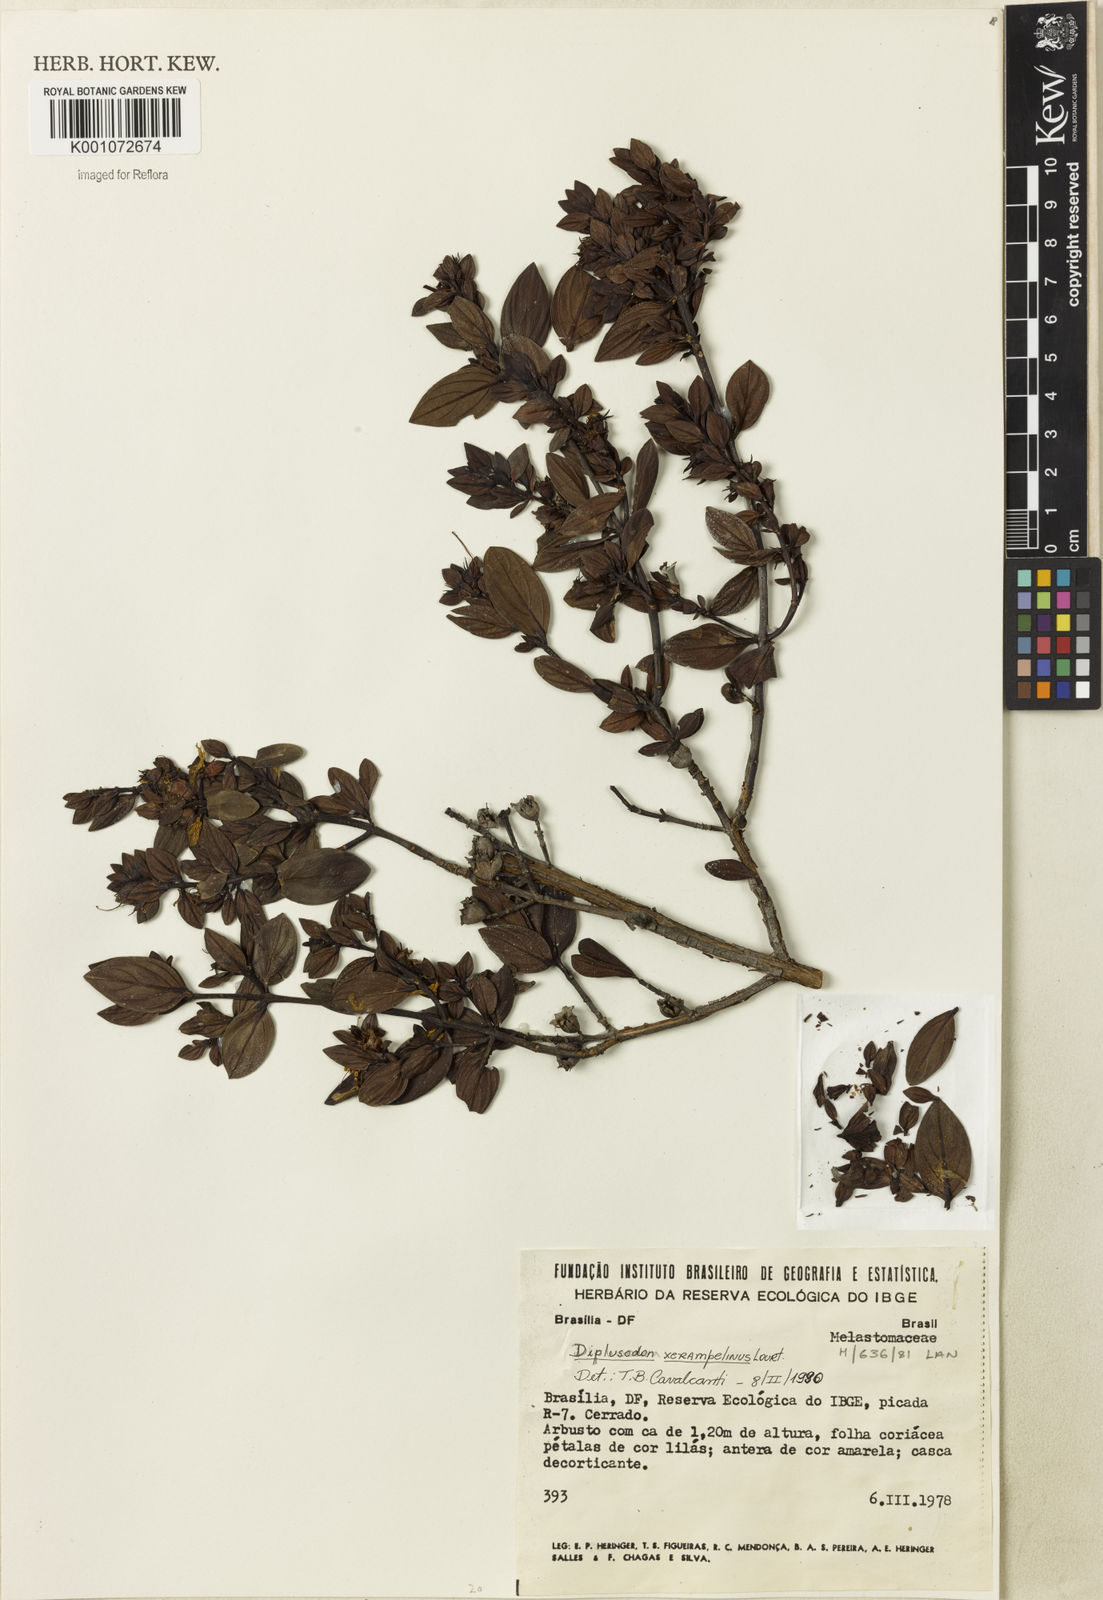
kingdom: Plantae
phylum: Tracheophyta
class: Magnoliopsida
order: Myrtales
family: Lythraceae
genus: Diplusodon
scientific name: Diplusodon nigricans
